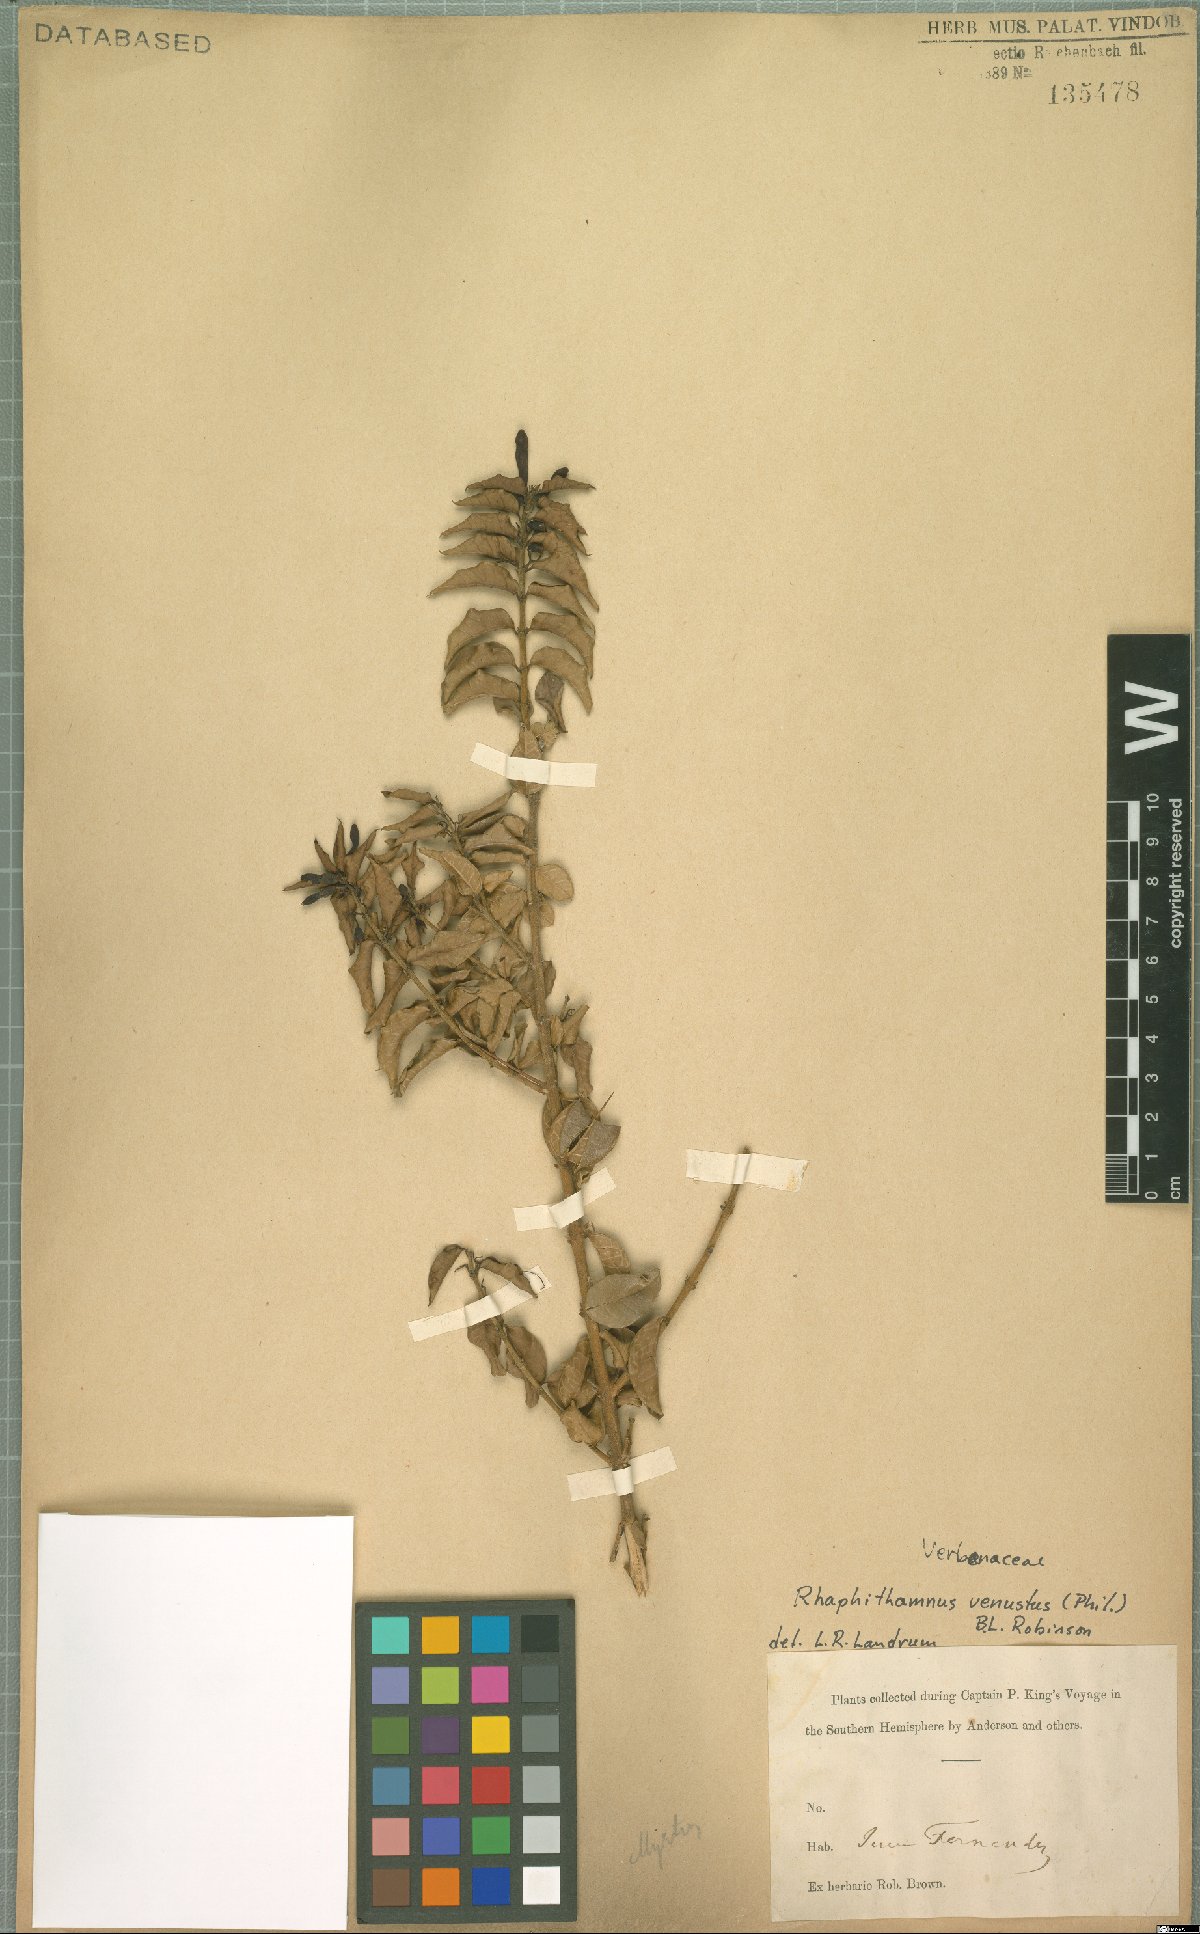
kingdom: Plantae
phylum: Tracheophyta
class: Magnoliopsida
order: Lamiales
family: Verbenaceae
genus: Rhaphithamnus
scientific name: Rhaphithamnus venustus
